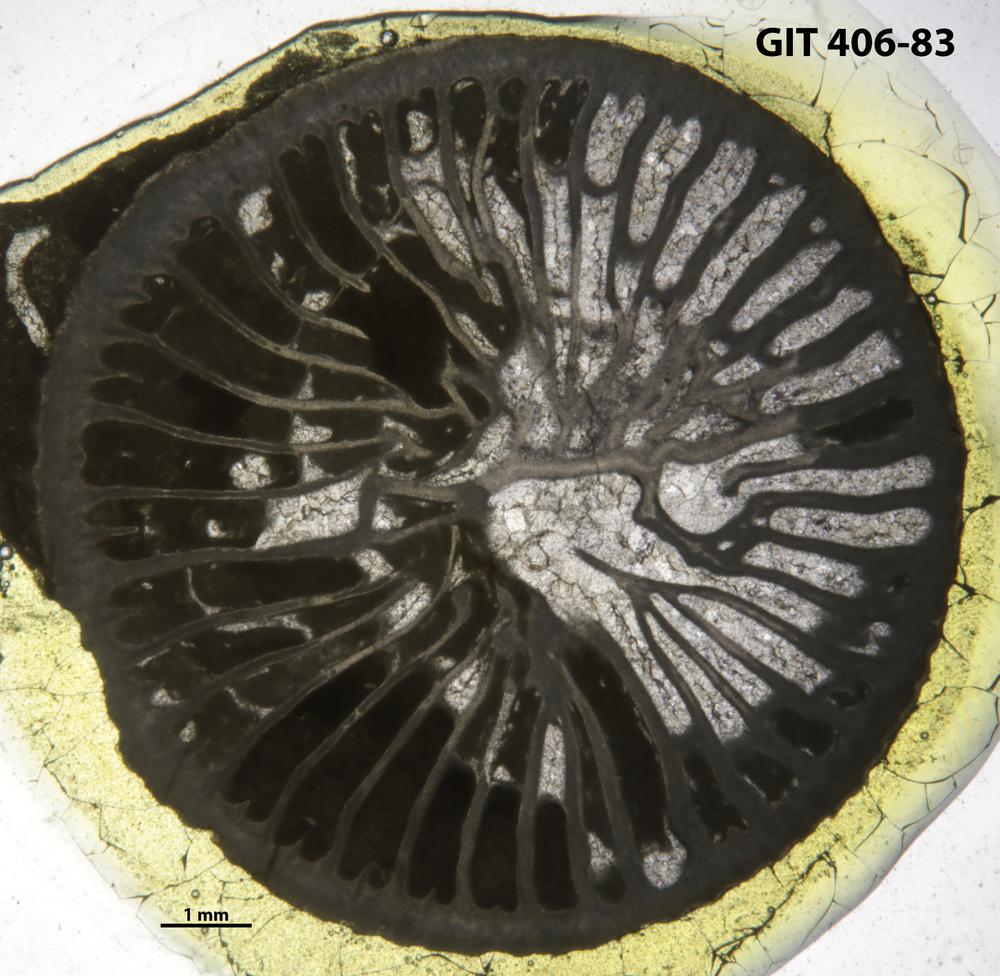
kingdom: Animalia
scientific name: Animalia
